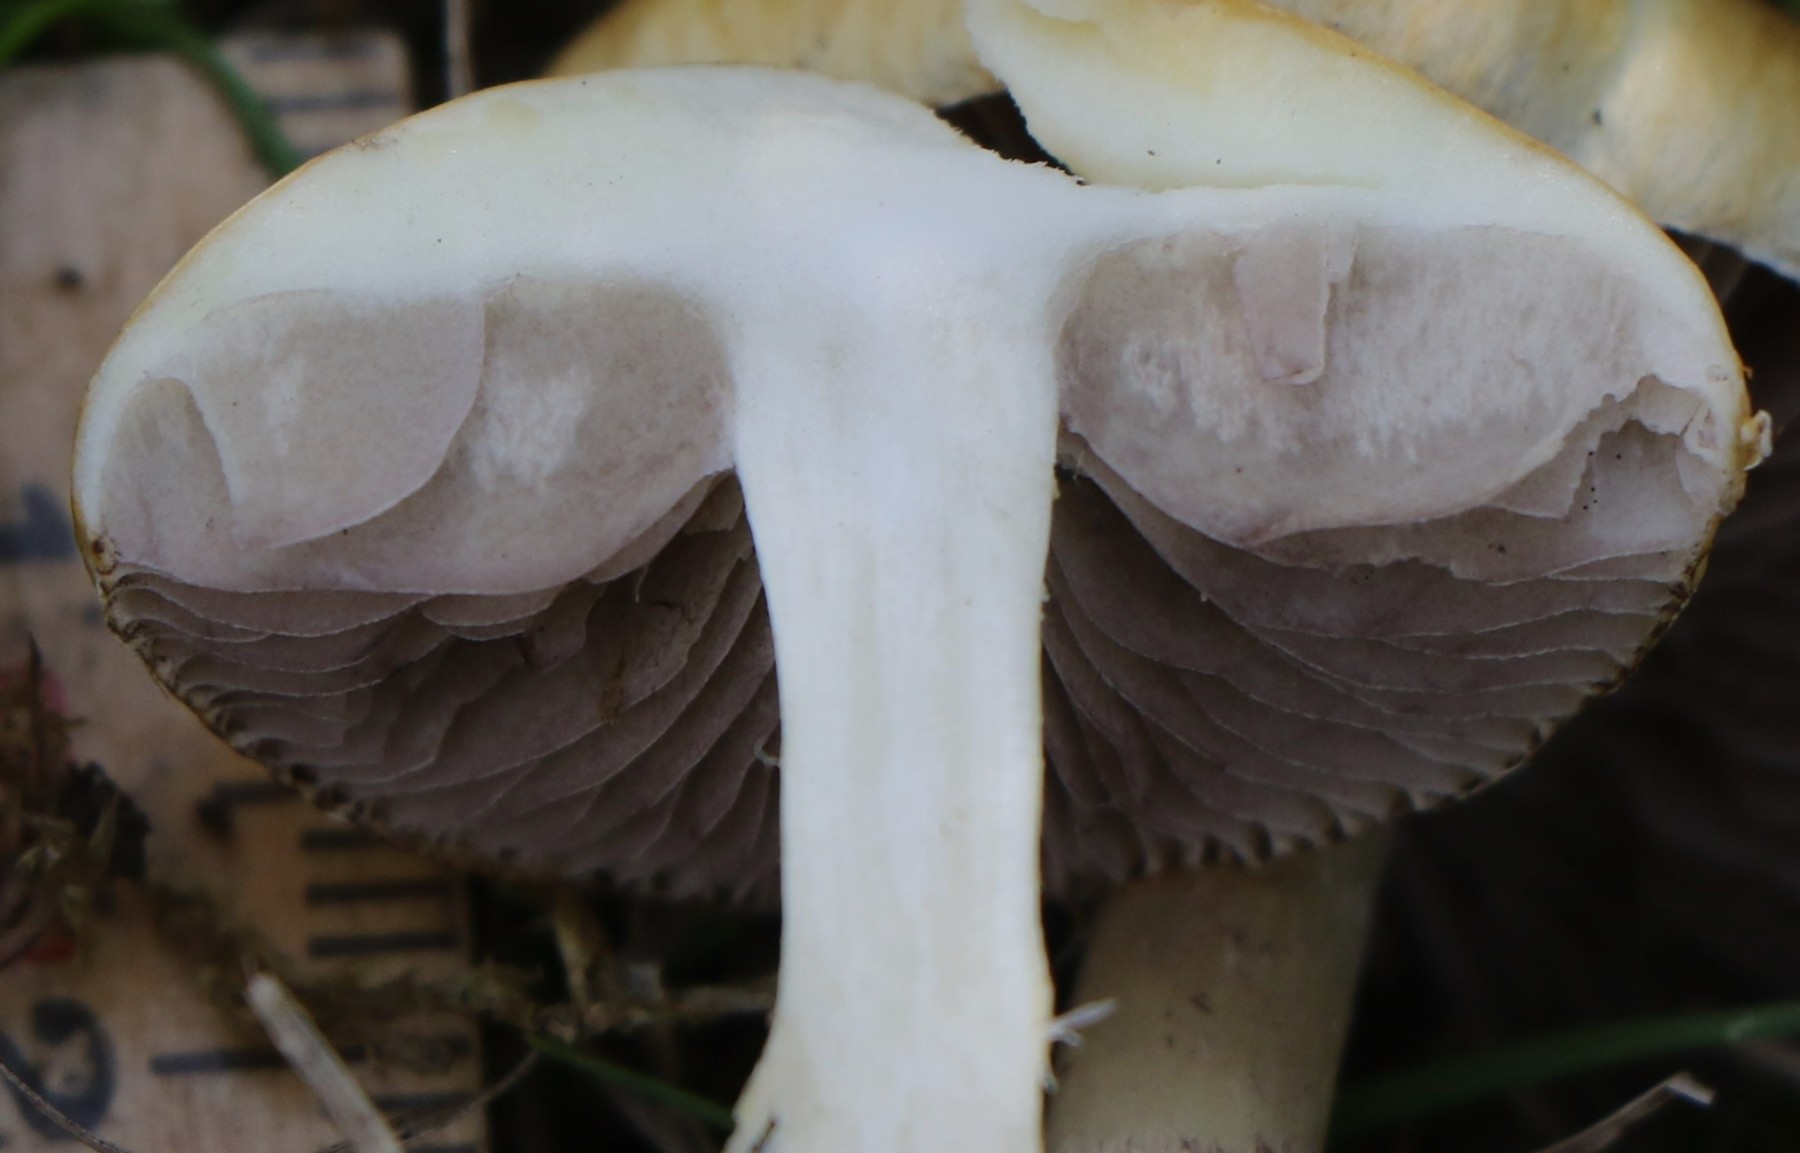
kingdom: Fungi
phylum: Basidiomycota
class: Agaricomycetes
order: Agaricales
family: Hymenogastraceae
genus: Psilocybe
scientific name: Psilocybe coronilla
